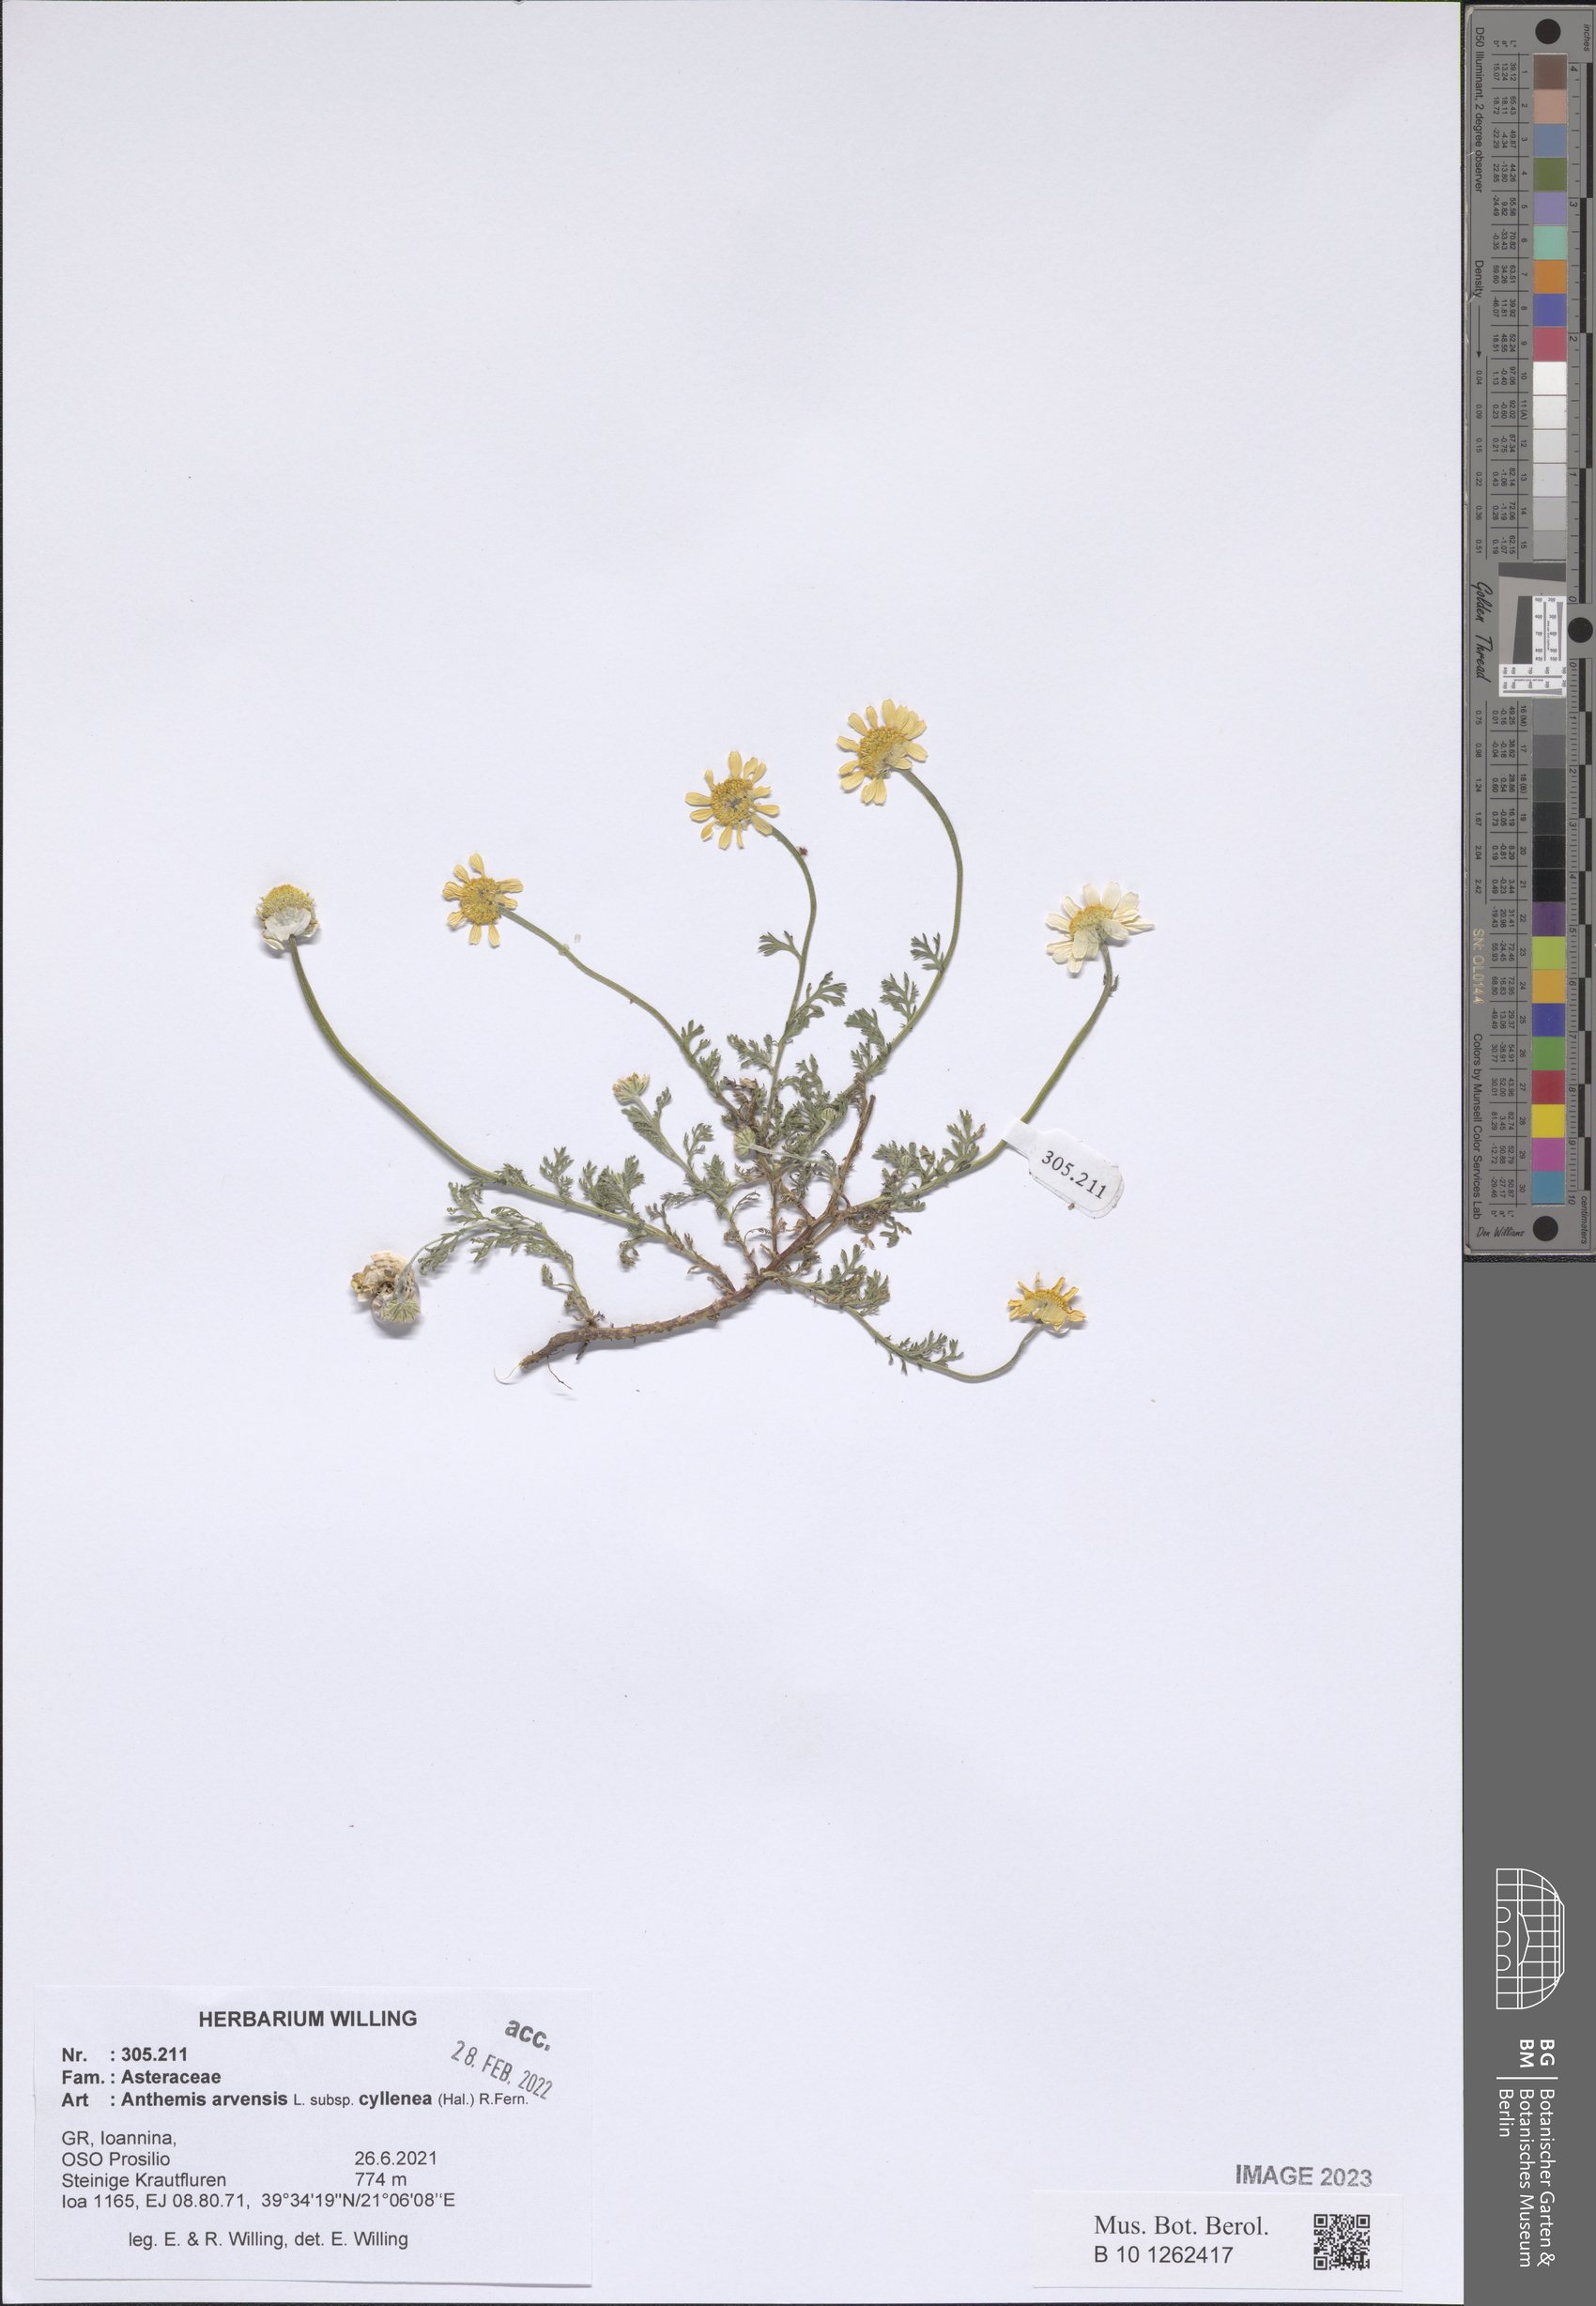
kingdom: Plantae
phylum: Tracheophyta
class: Magnoliopsida
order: Asterales
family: Asteraceae
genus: Anthemis
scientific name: Anthemis arvensis
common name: Corn chamomile
